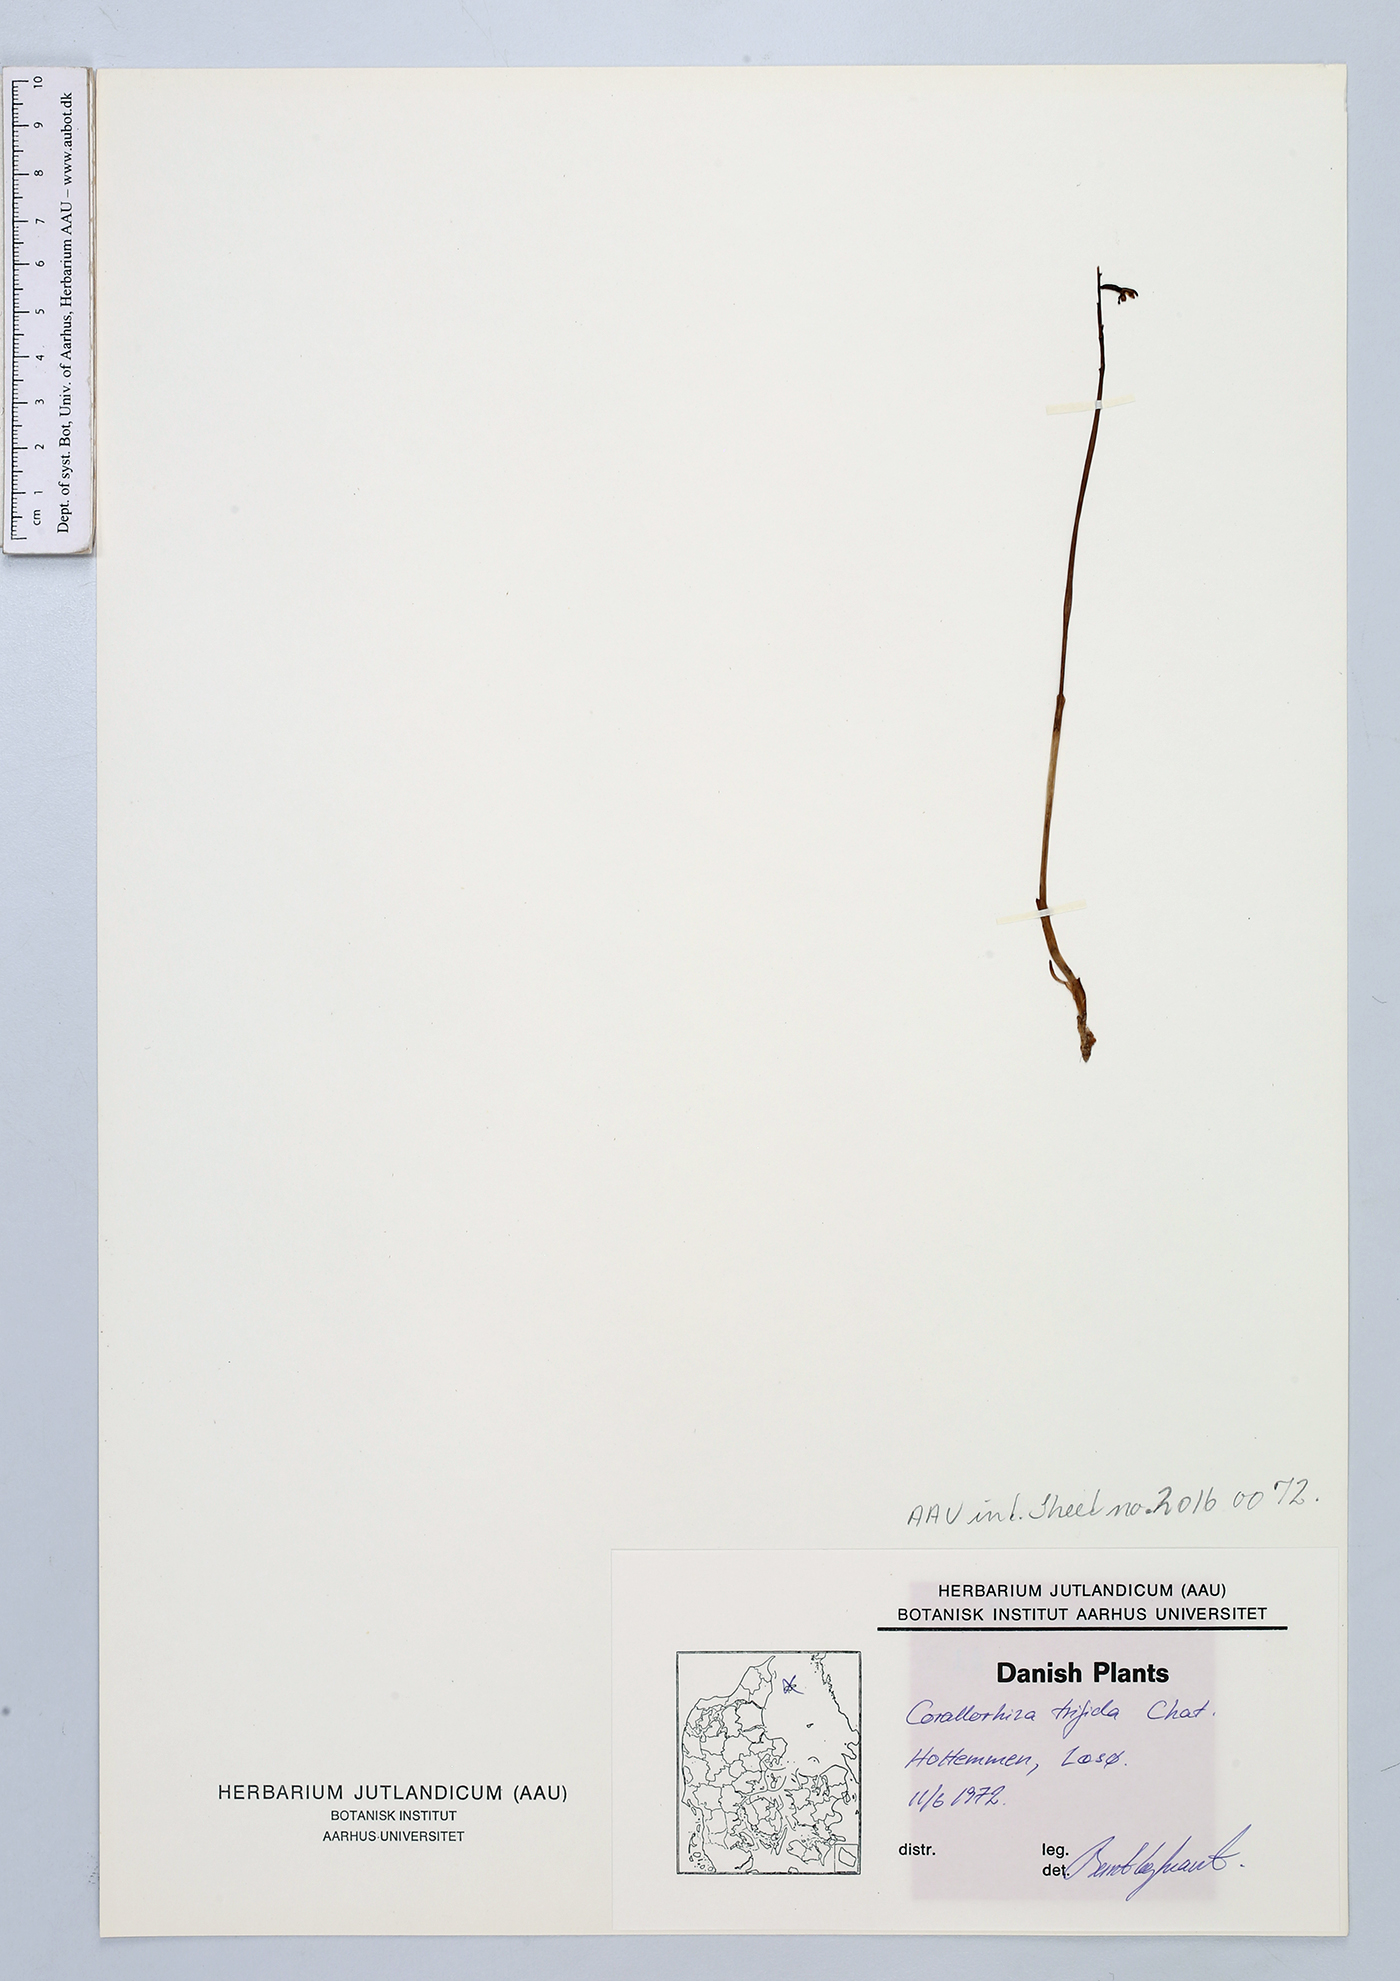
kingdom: Plantae
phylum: Tracheophyta
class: Liliopsida
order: Asparagales
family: Orchidaceae
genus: Corallorhiza
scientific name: Corallorhiza trifida
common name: Yellow coralroot
